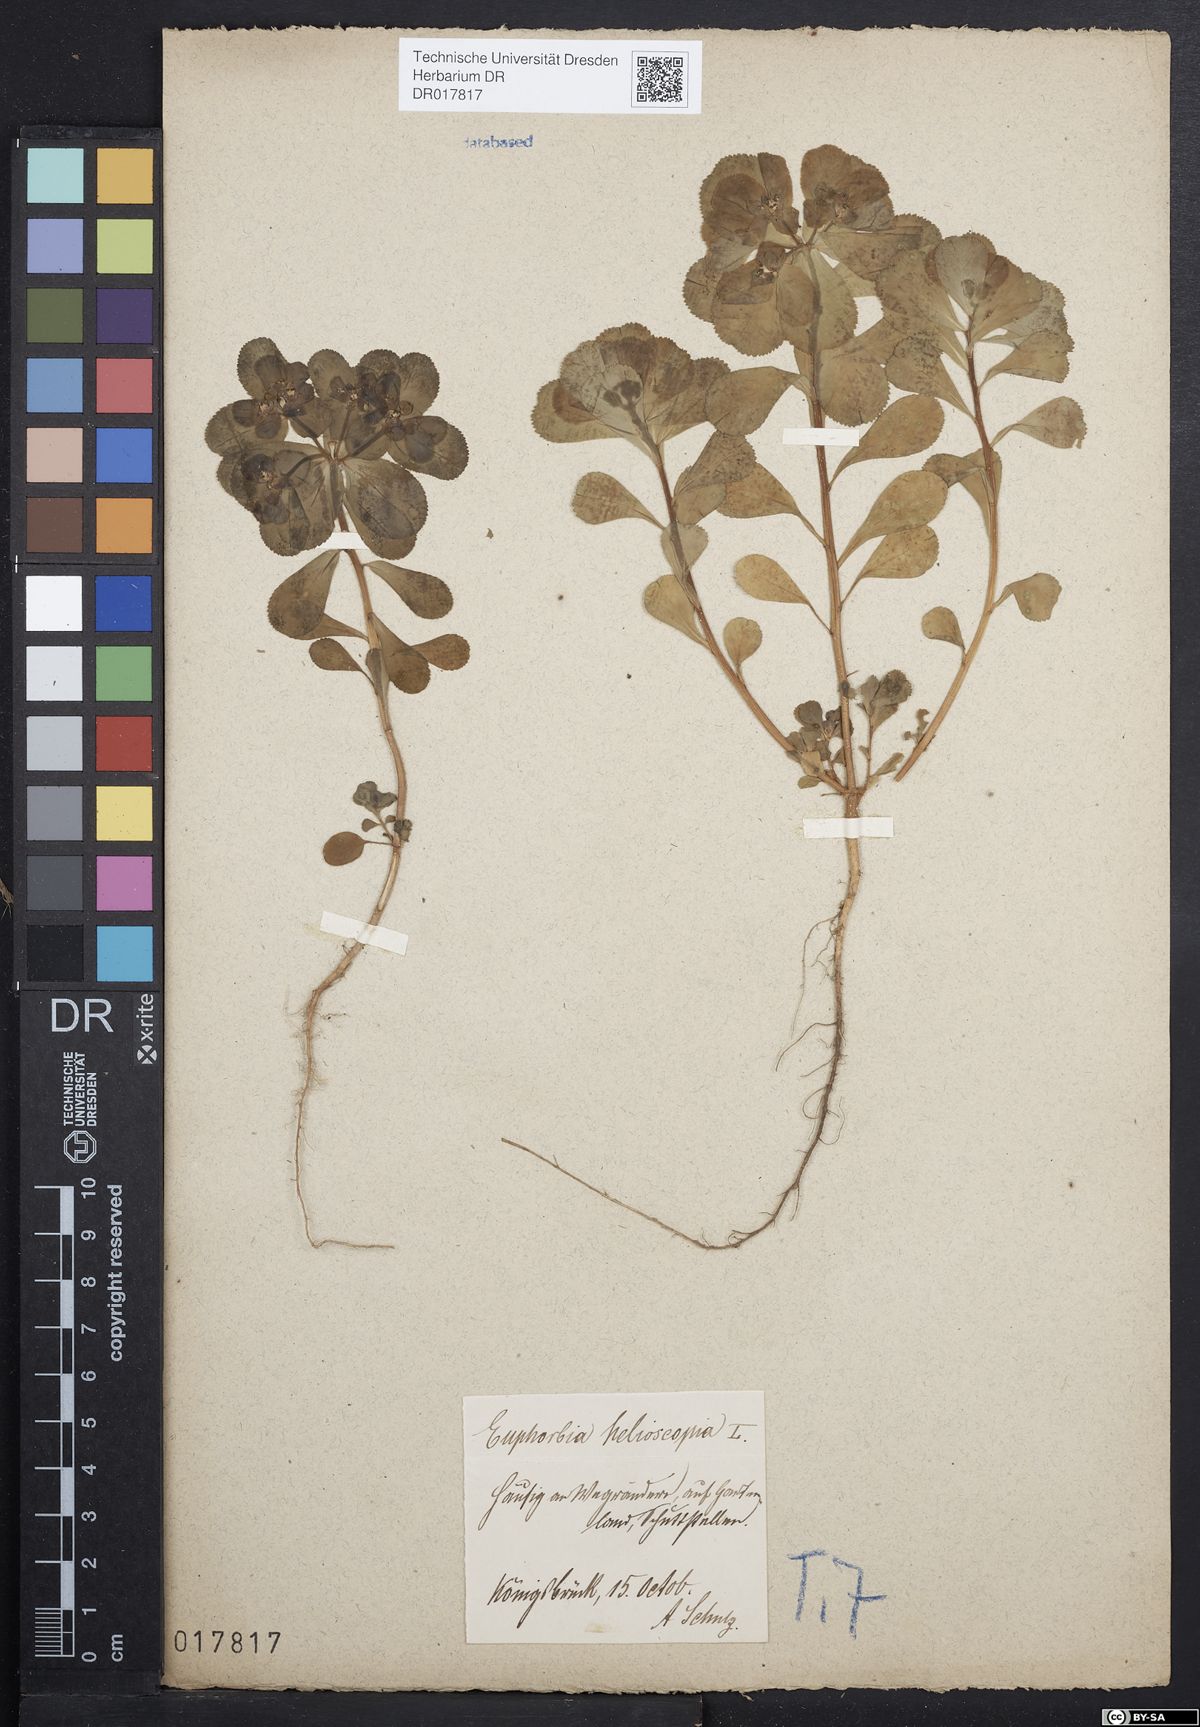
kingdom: Plantae
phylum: Tracheophyta
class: Magnoliopsida
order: Malpighiales
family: Euphorbiaceae
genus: Euphorbia
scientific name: Euphorbia helioscopia
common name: Sun spurge
